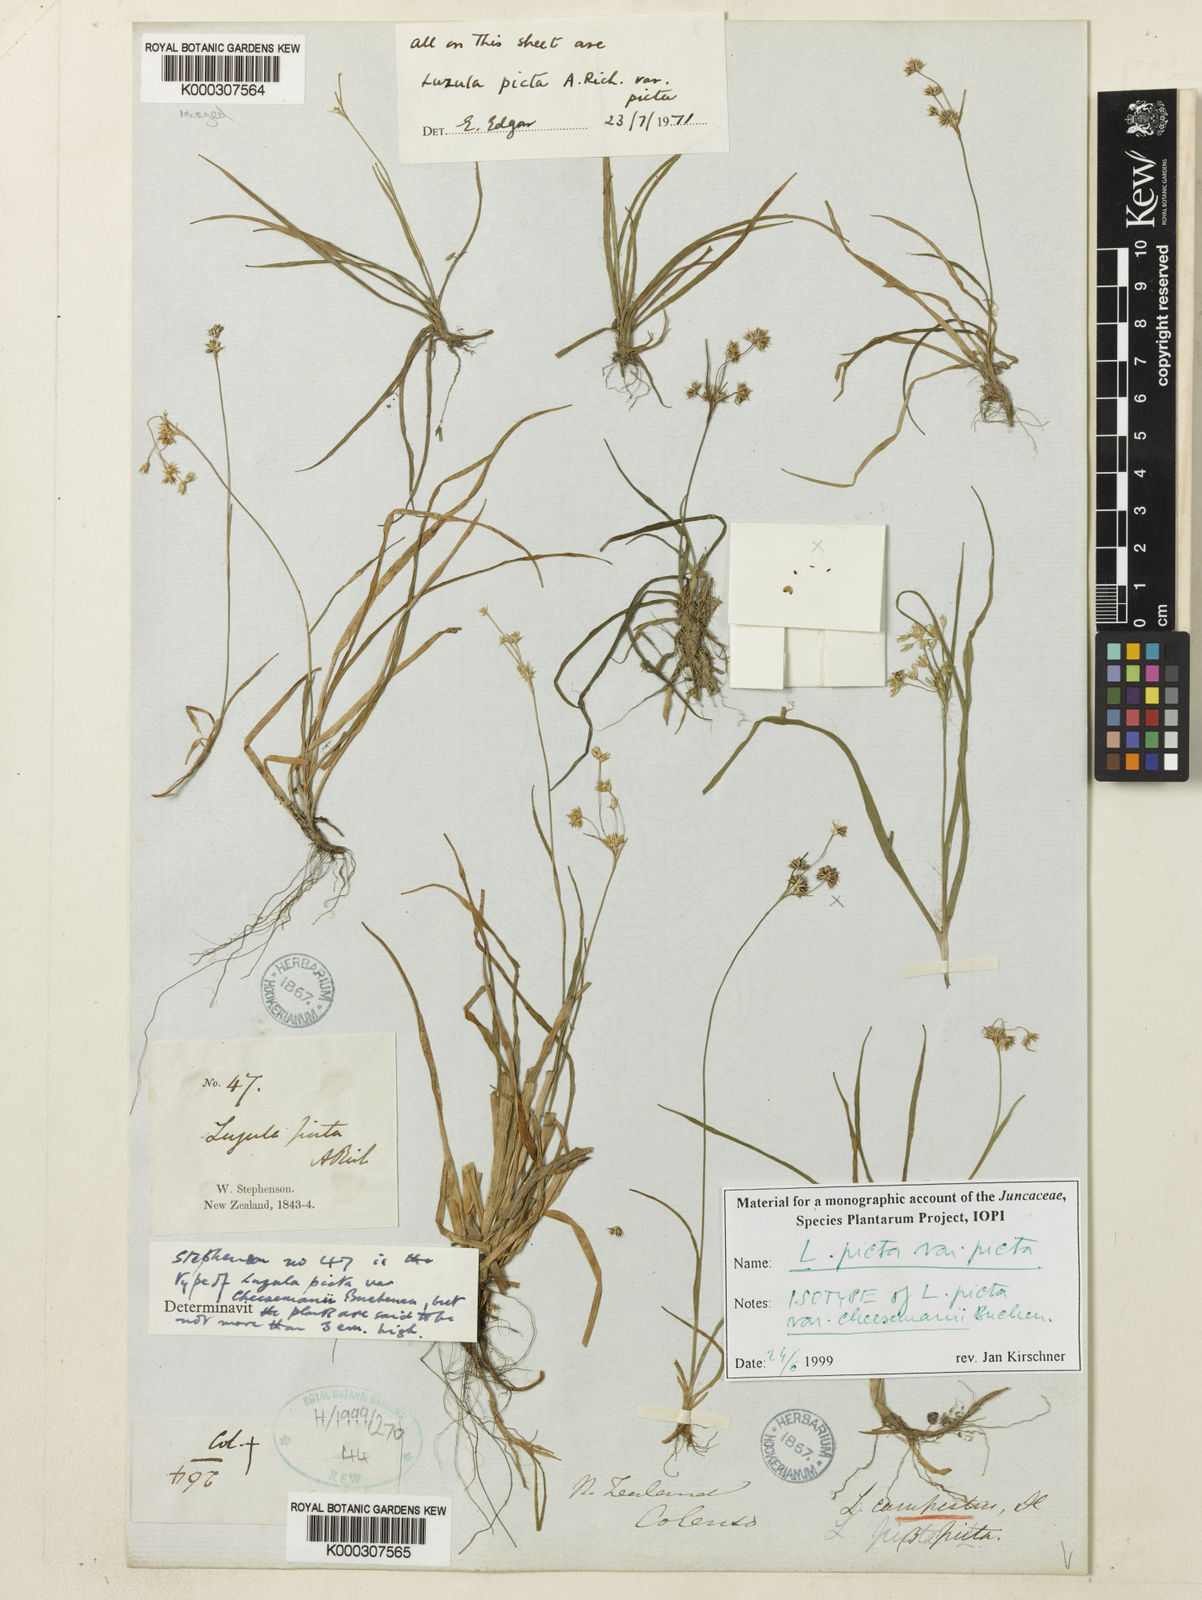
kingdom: Plantae
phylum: Tracheophyta
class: Liliopsida
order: Poales
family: Juncaceae
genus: Luzula
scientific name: Luzula picta
